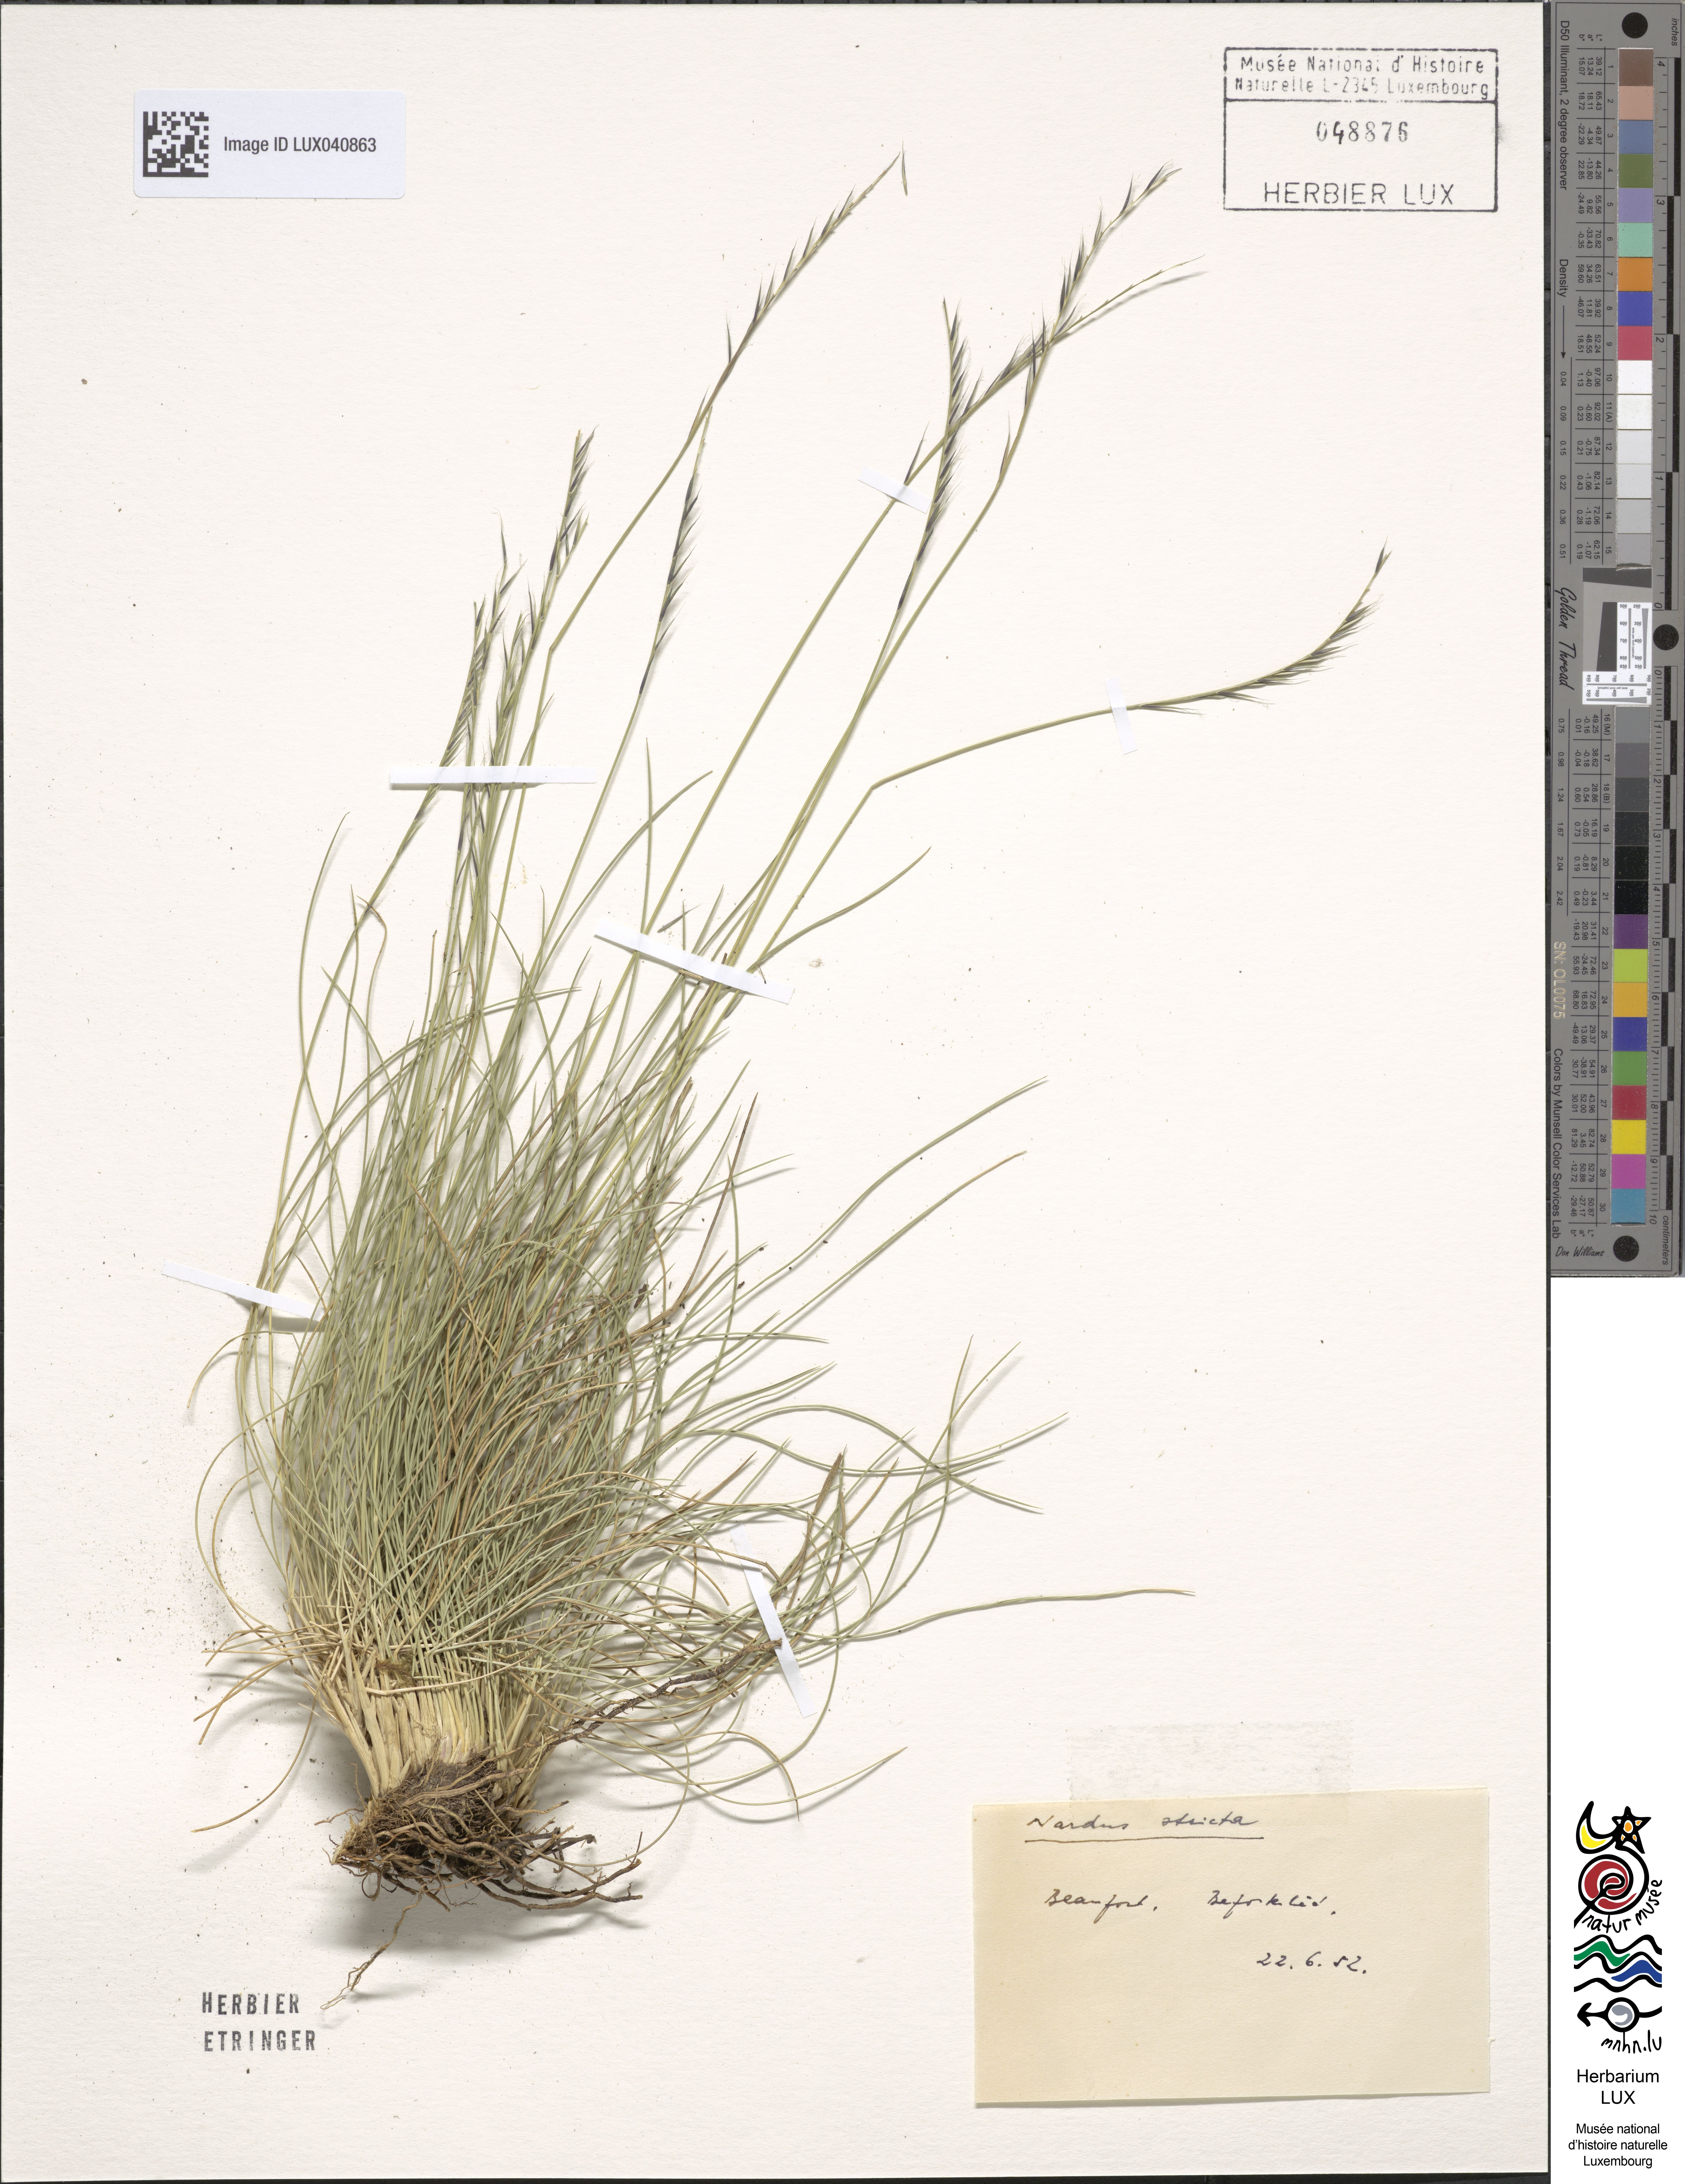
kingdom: Plantae
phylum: Tracheophyta
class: Liliopsida
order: Poales
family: Poaceae
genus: Nardus
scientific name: Nardus stricta
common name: Mat-grass
